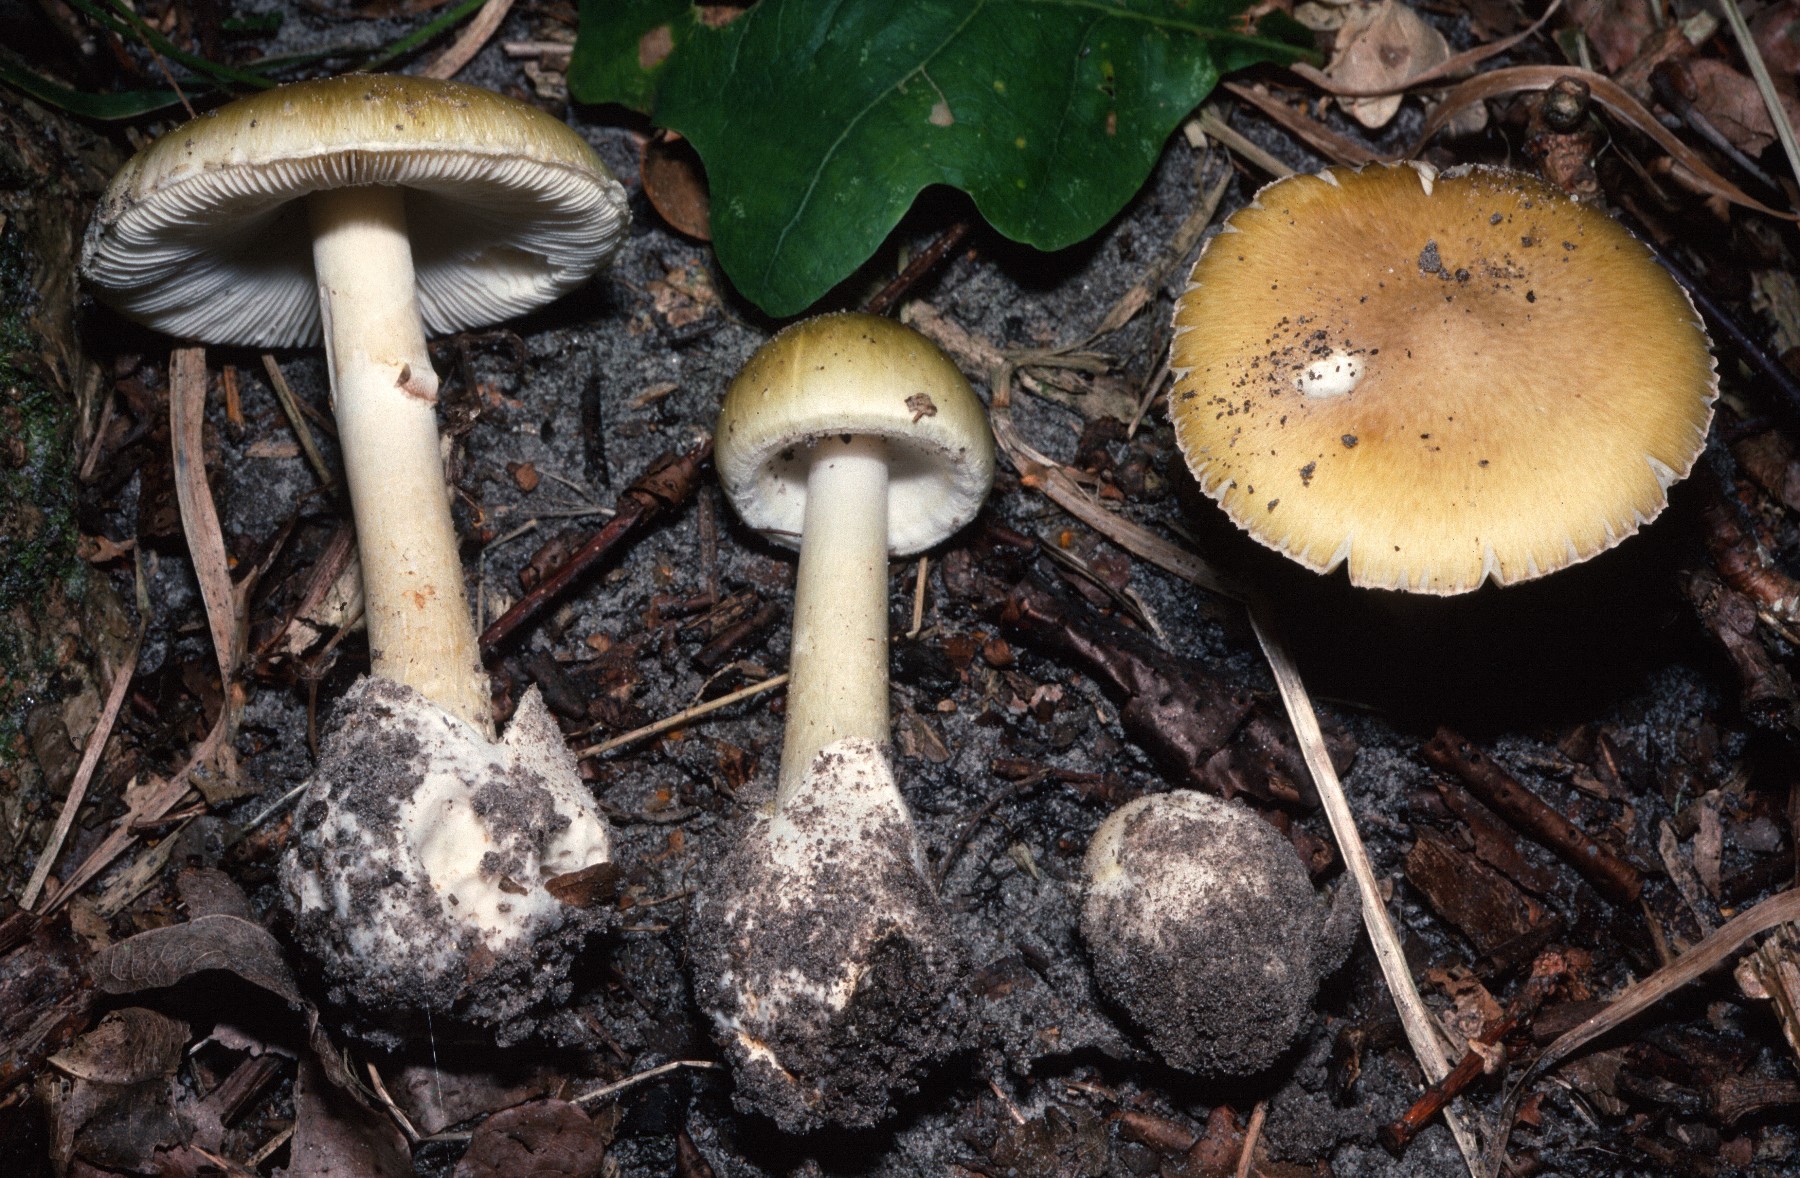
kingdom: Fungi
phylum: Basidiomycota
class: Agaricomycetes
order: Agaricales
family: Amanitaceae
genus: Amanita
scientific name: Amanita phalloides
